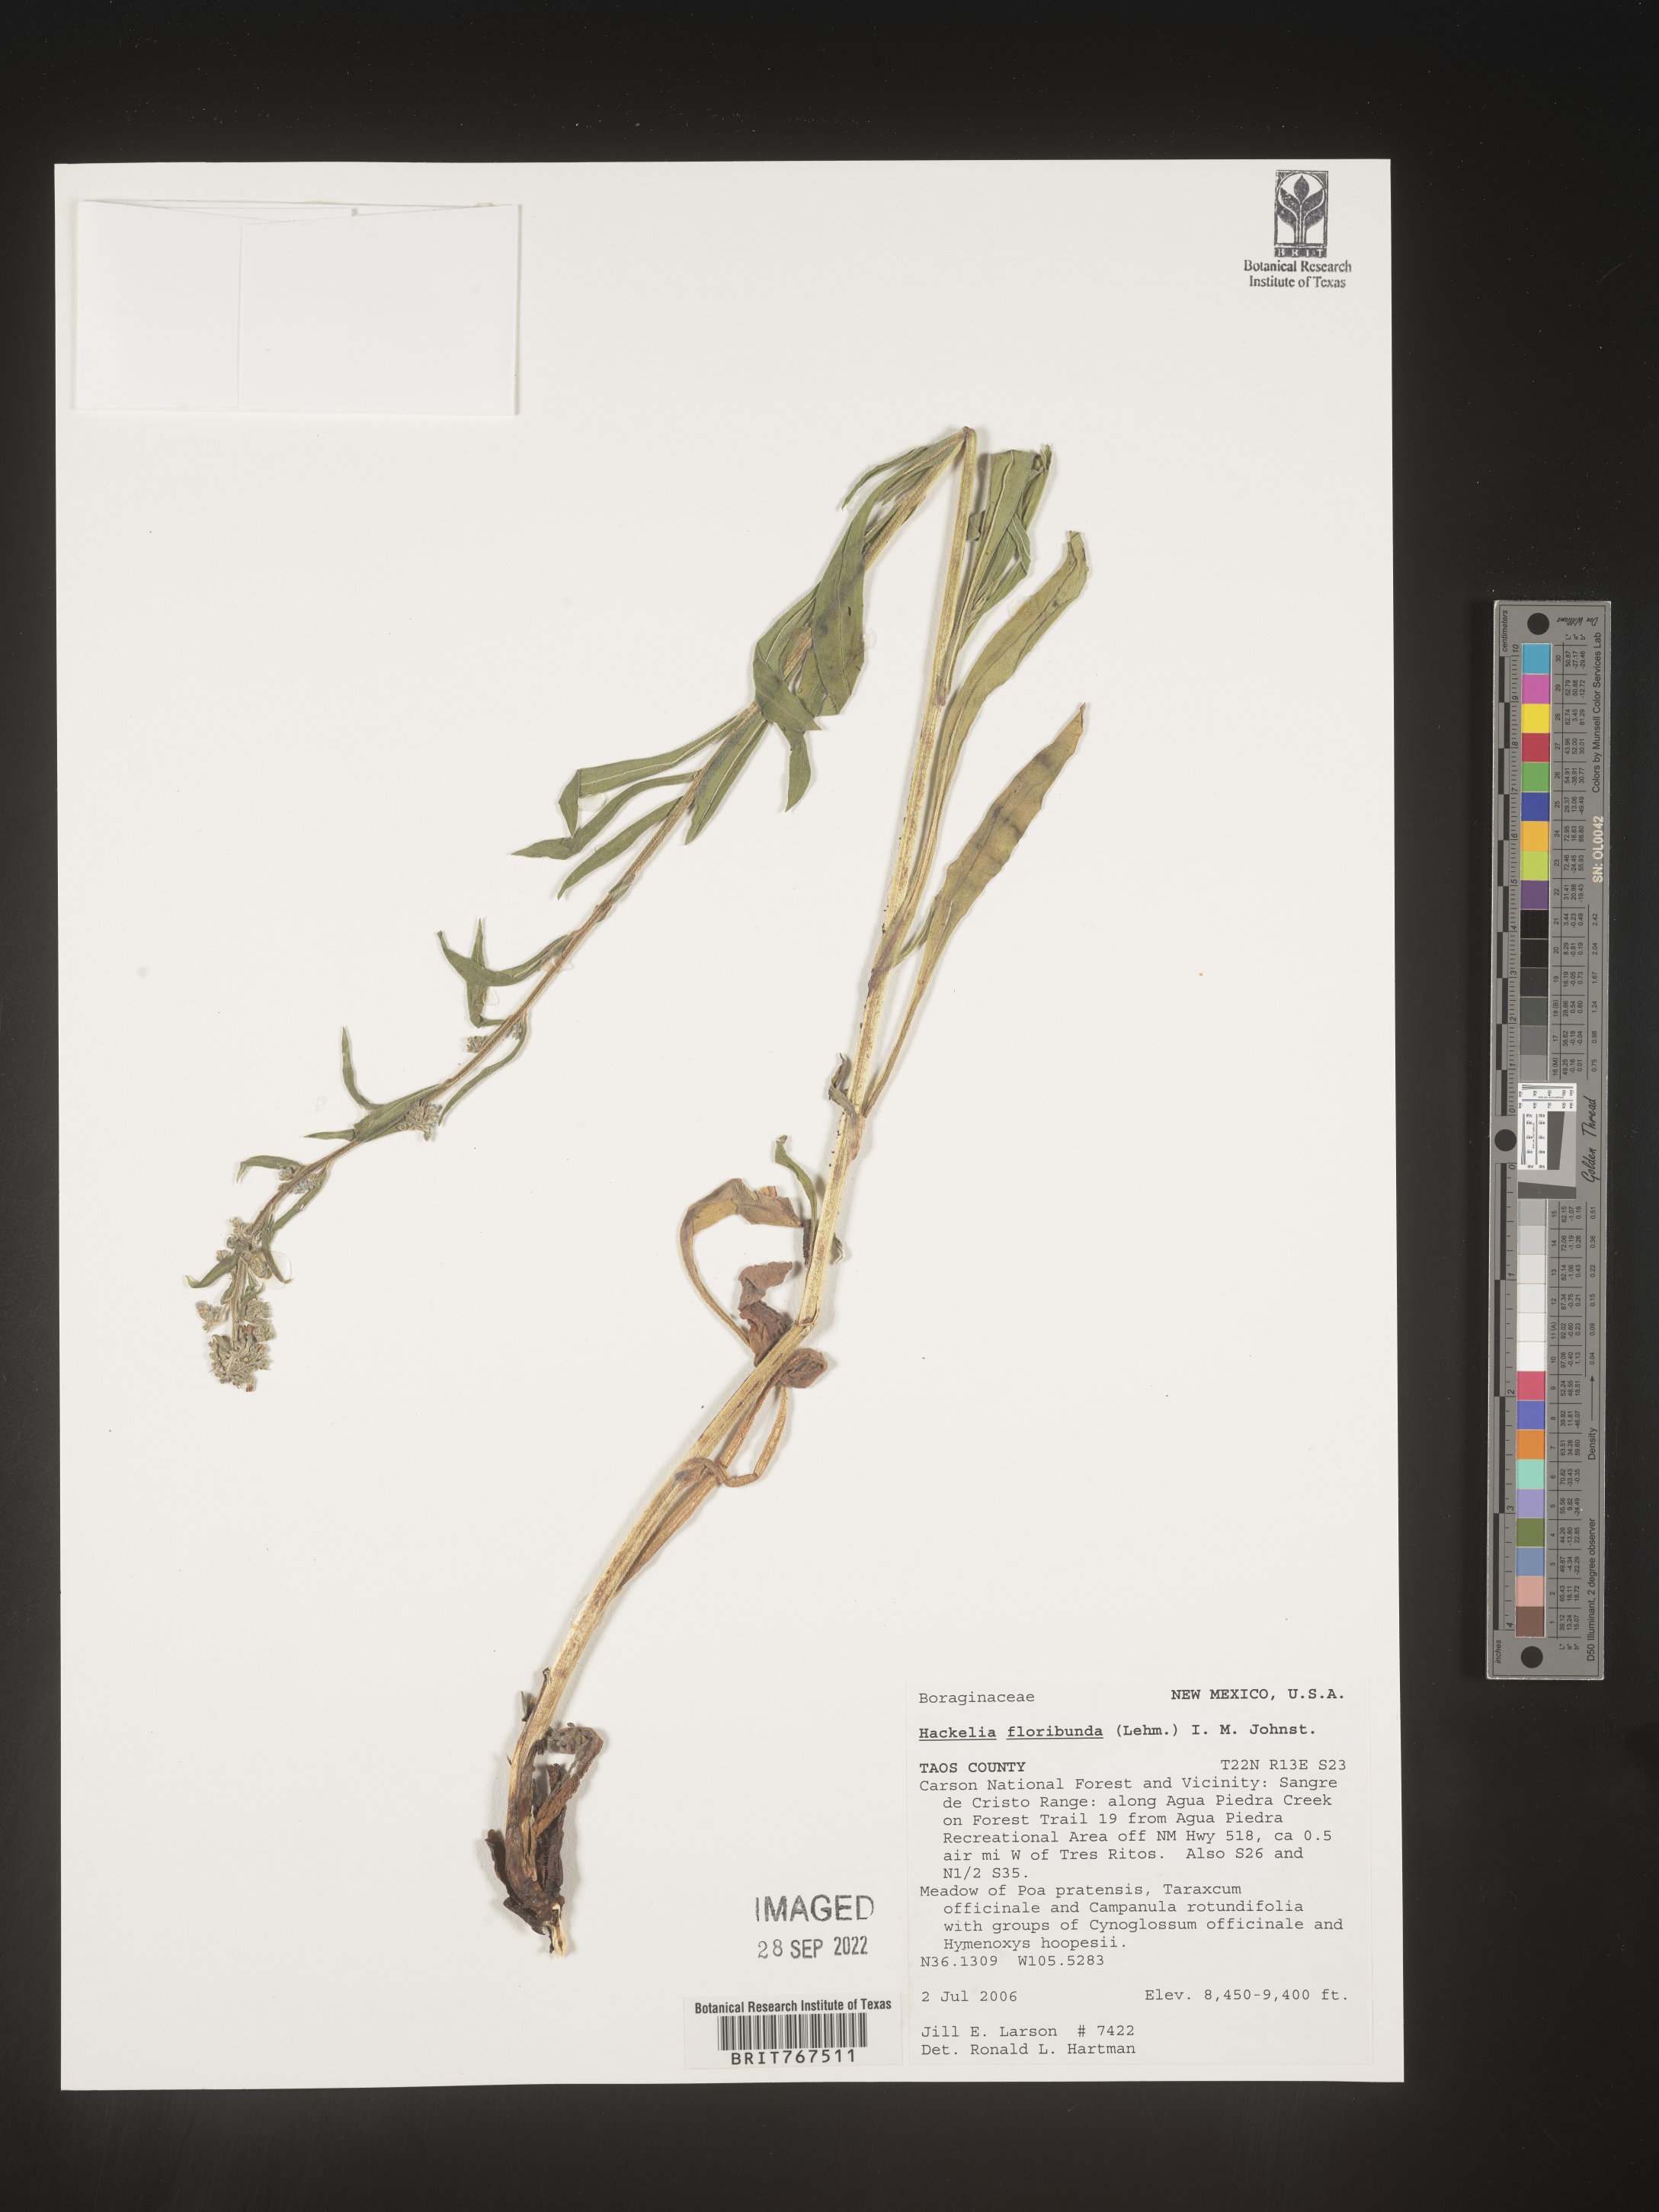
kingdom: Plantae
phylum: Tracheophyta
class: Magnoliopsida
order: Boraginales
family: Boraginaceae
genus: Hackelia
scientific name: Hackelia floribunda
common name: Large-flowered stickseed
